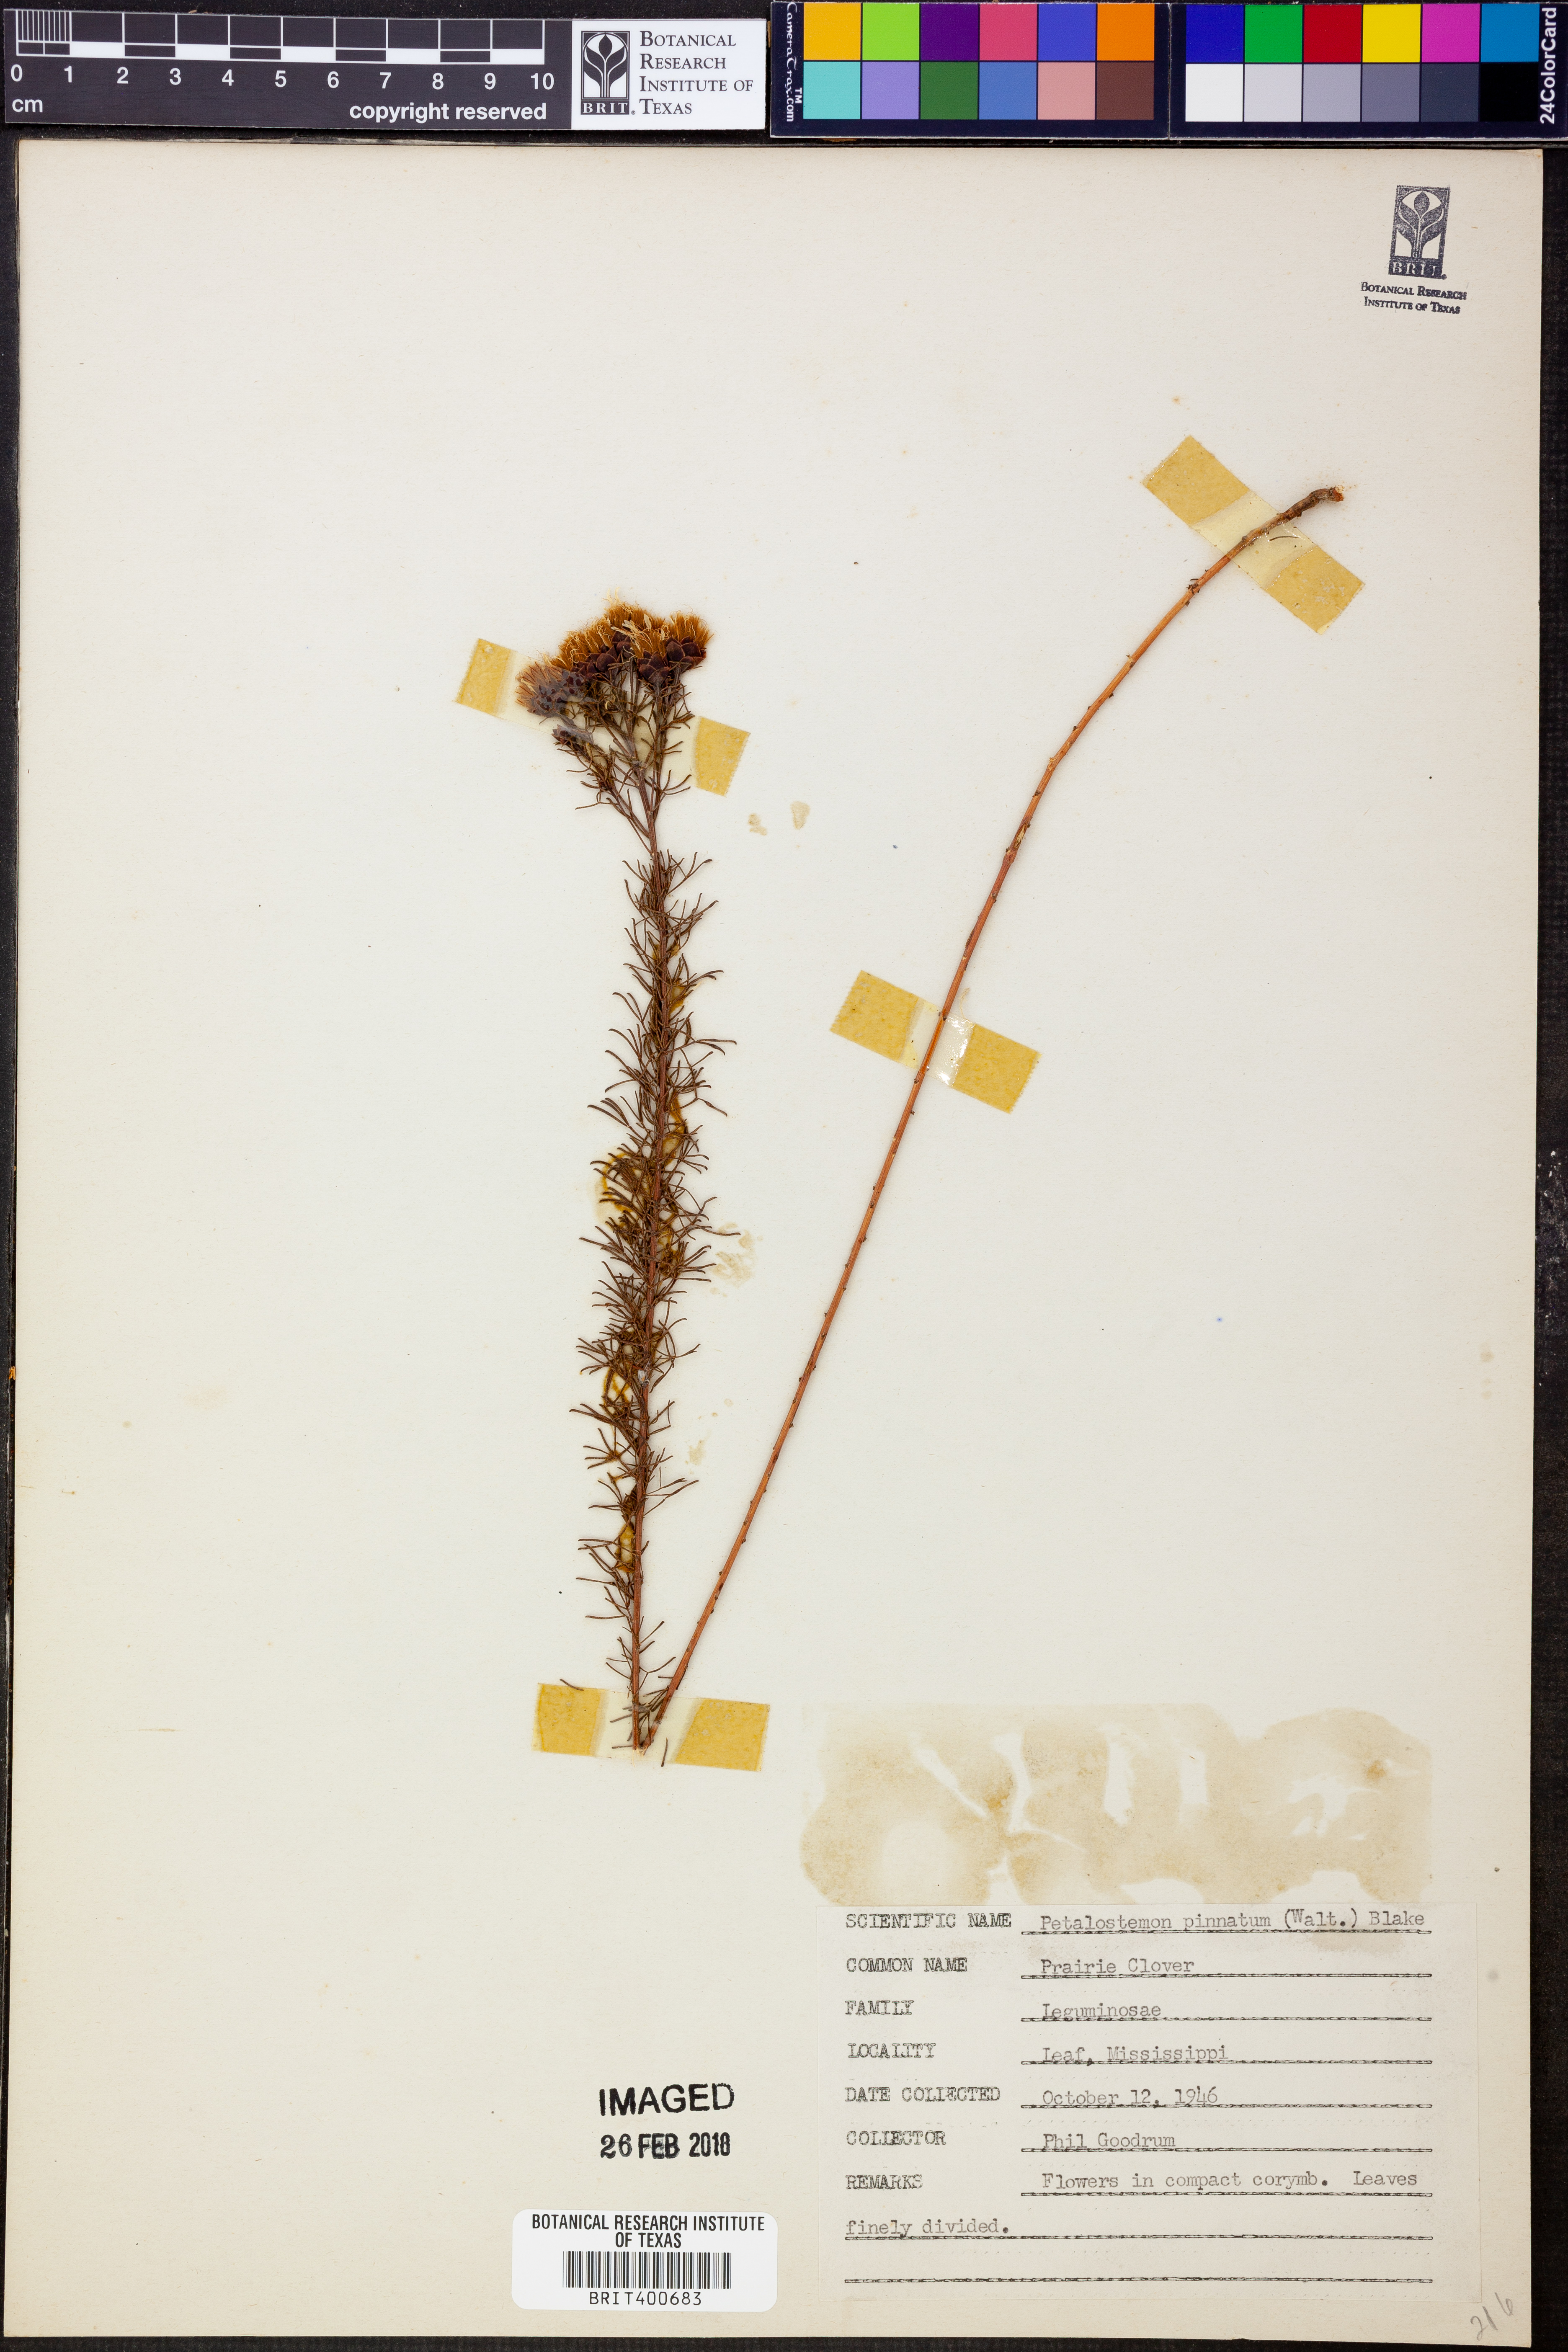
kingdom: Plantae
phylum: Tracheophyta
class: Magnoliopsida
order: Fabales
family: Fabaceae
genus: Dalea
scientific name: Dalea pinnata
